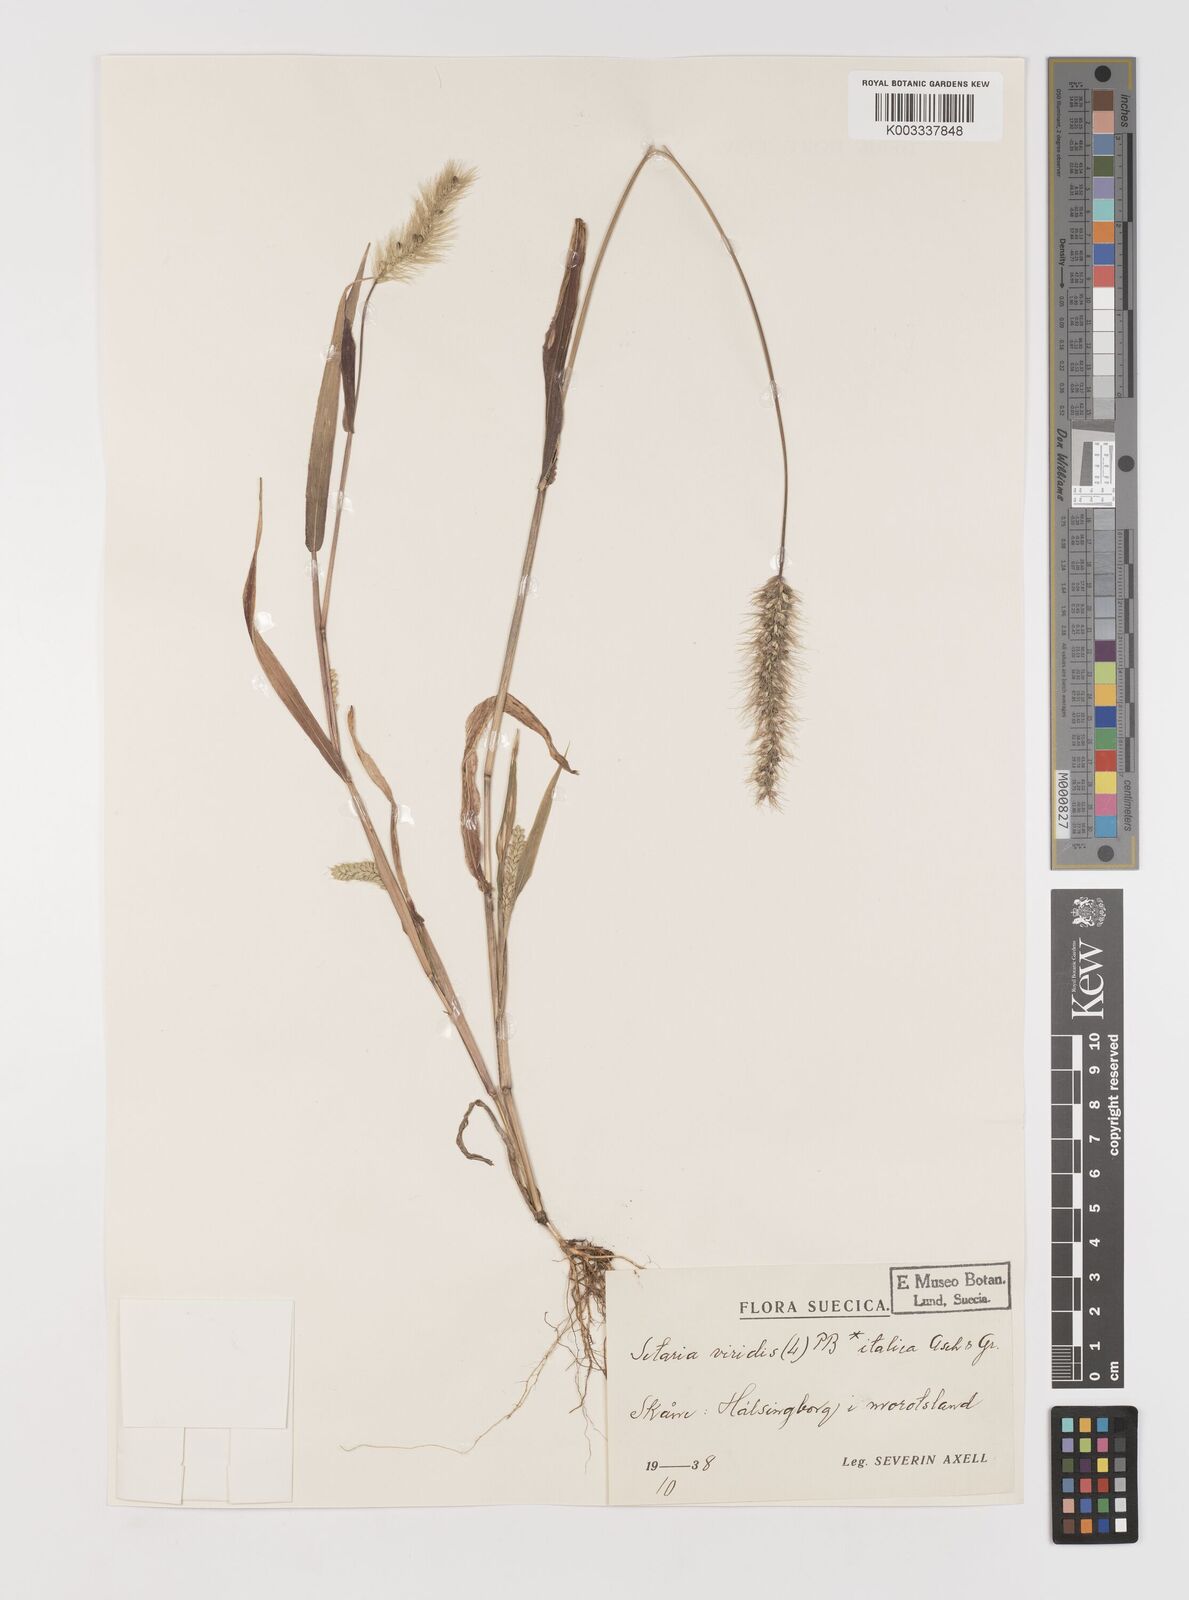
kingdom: Plantae
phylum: Tracheophyta
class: Liliopsida
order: Poales
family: Poaceae
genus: Setaria
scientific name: Setaria viridis
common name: Green bristlegrass
